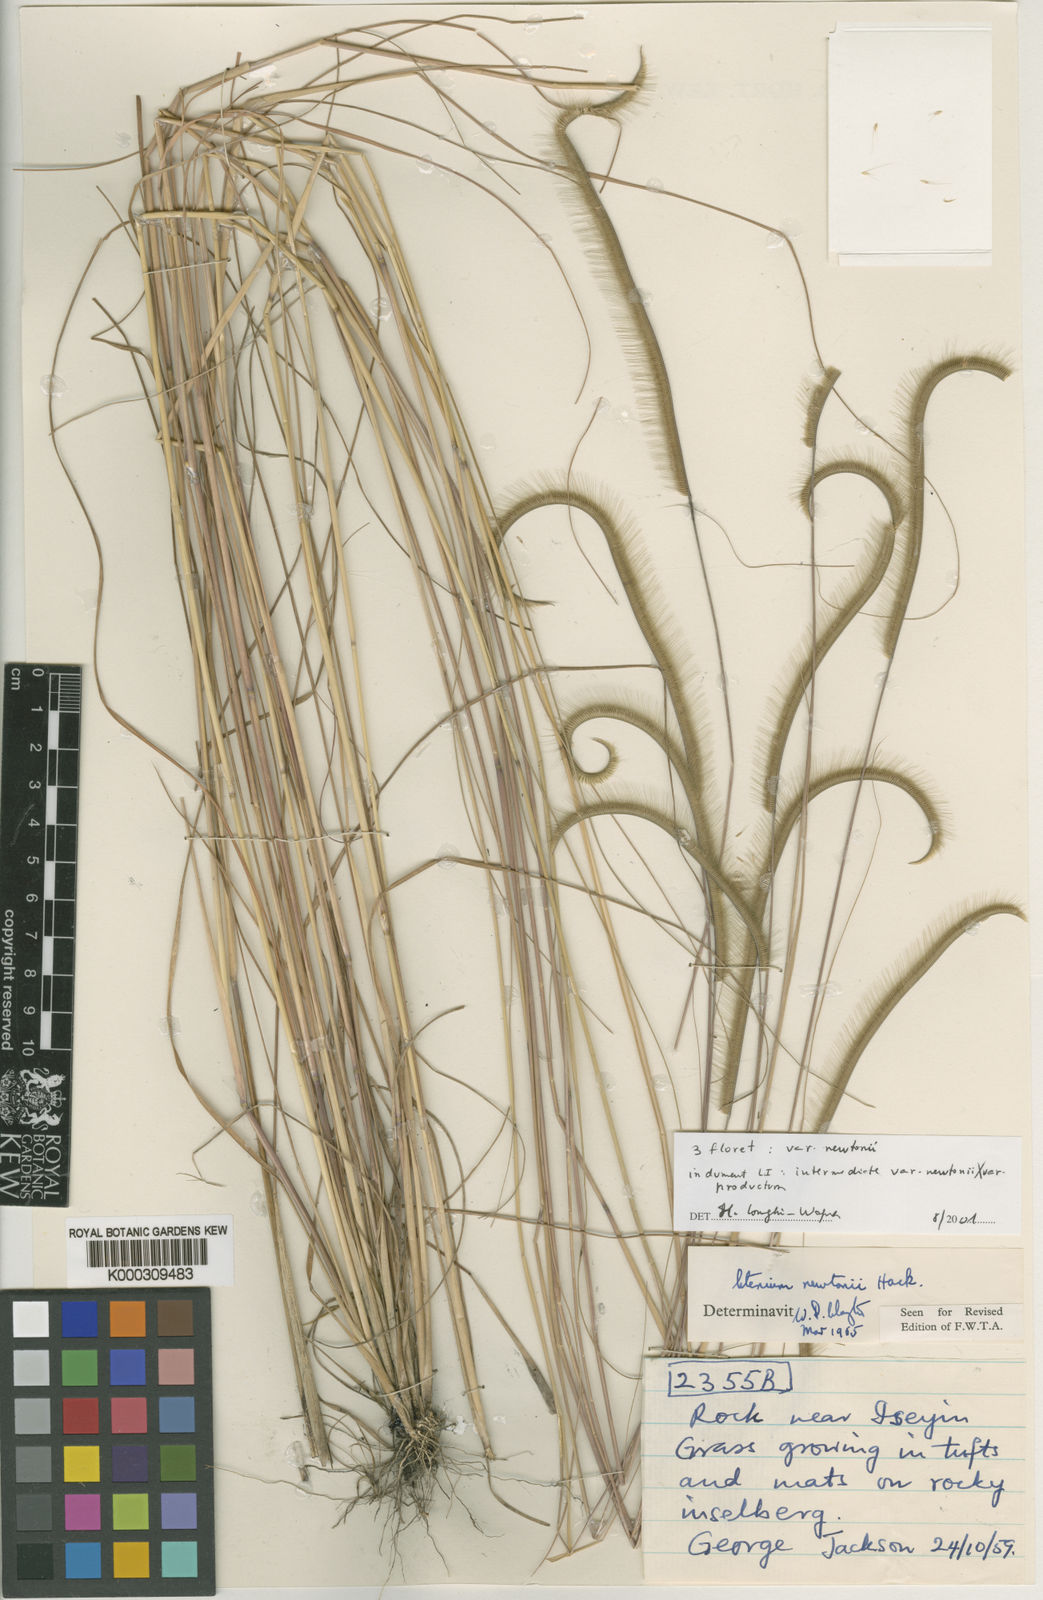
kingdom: Plantae
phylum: Tracheophyta
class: Liliopsida
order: Poales
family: Poaceae
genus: Ctenium
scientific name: Ctenium newtonii
